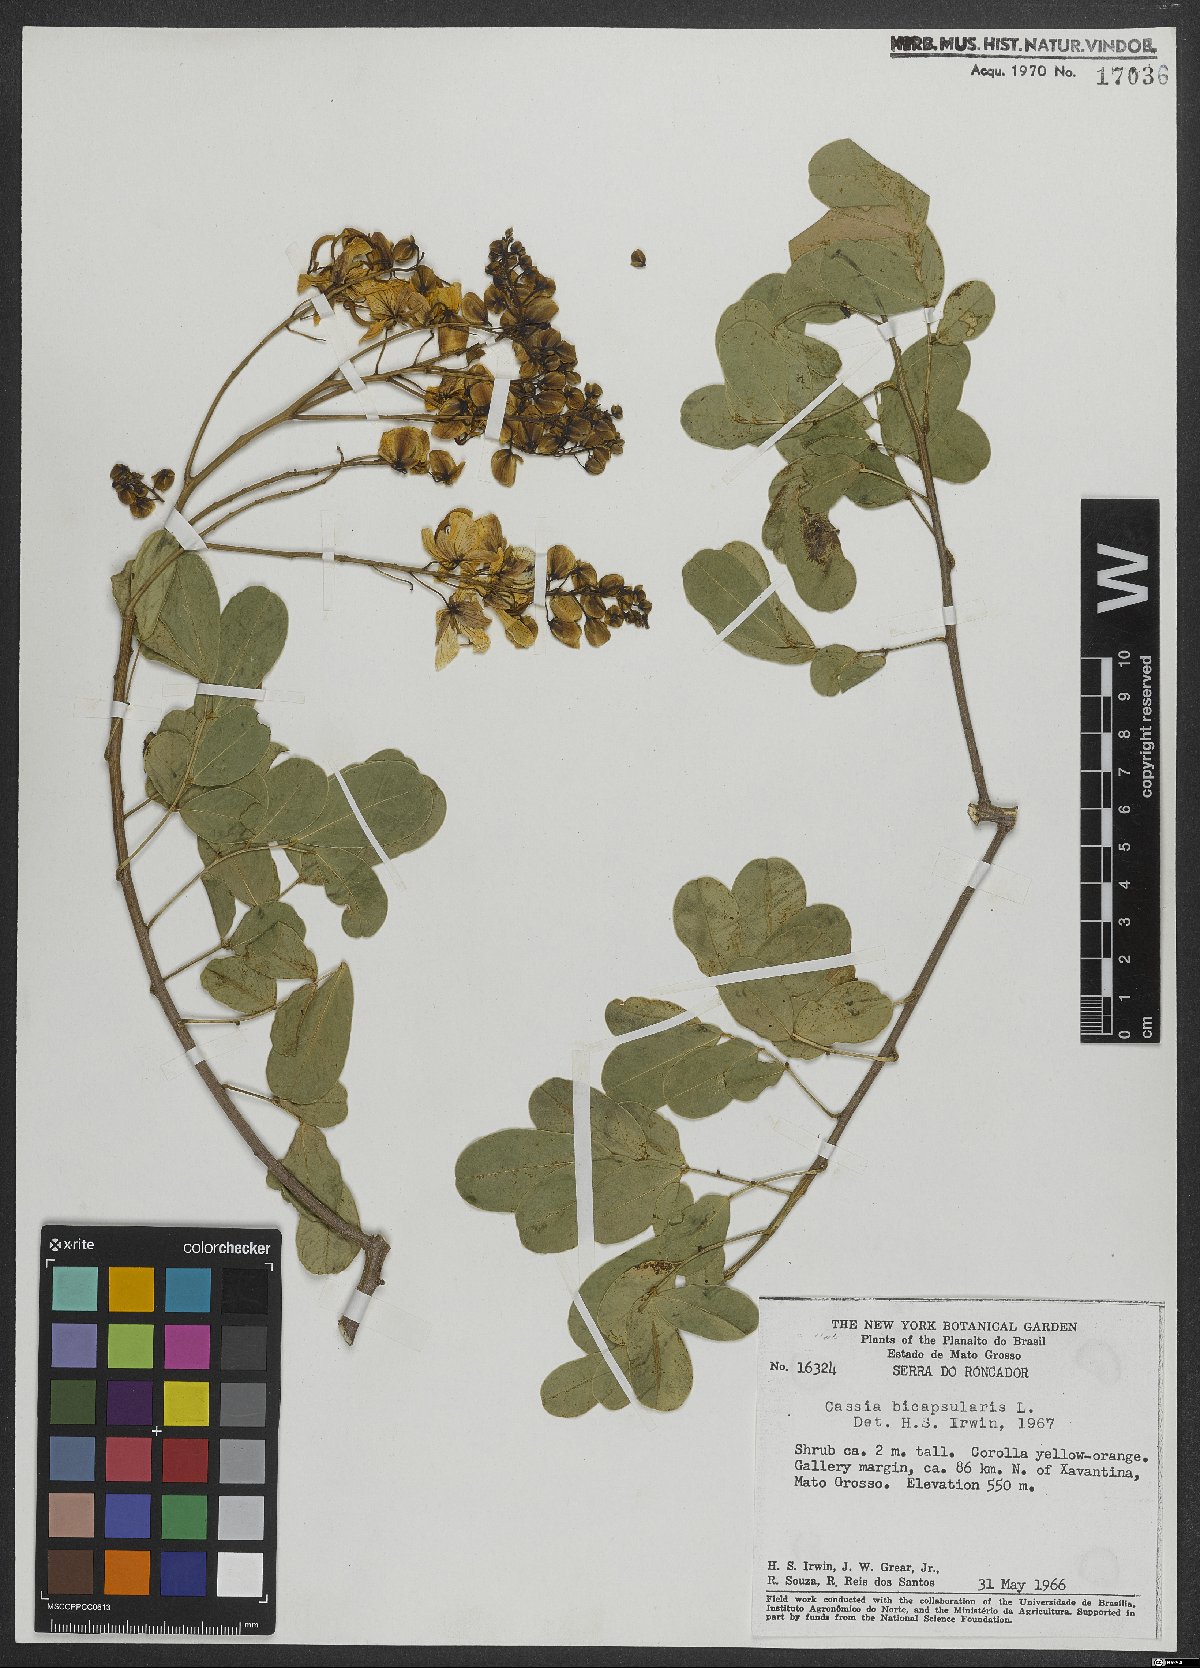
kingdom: Plantae
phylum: Tracheophyta
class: Magnoliopsida
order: Fabales
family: Fabaceae
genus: Senna
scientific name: Senna bicapsularis
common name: Christmasbush
